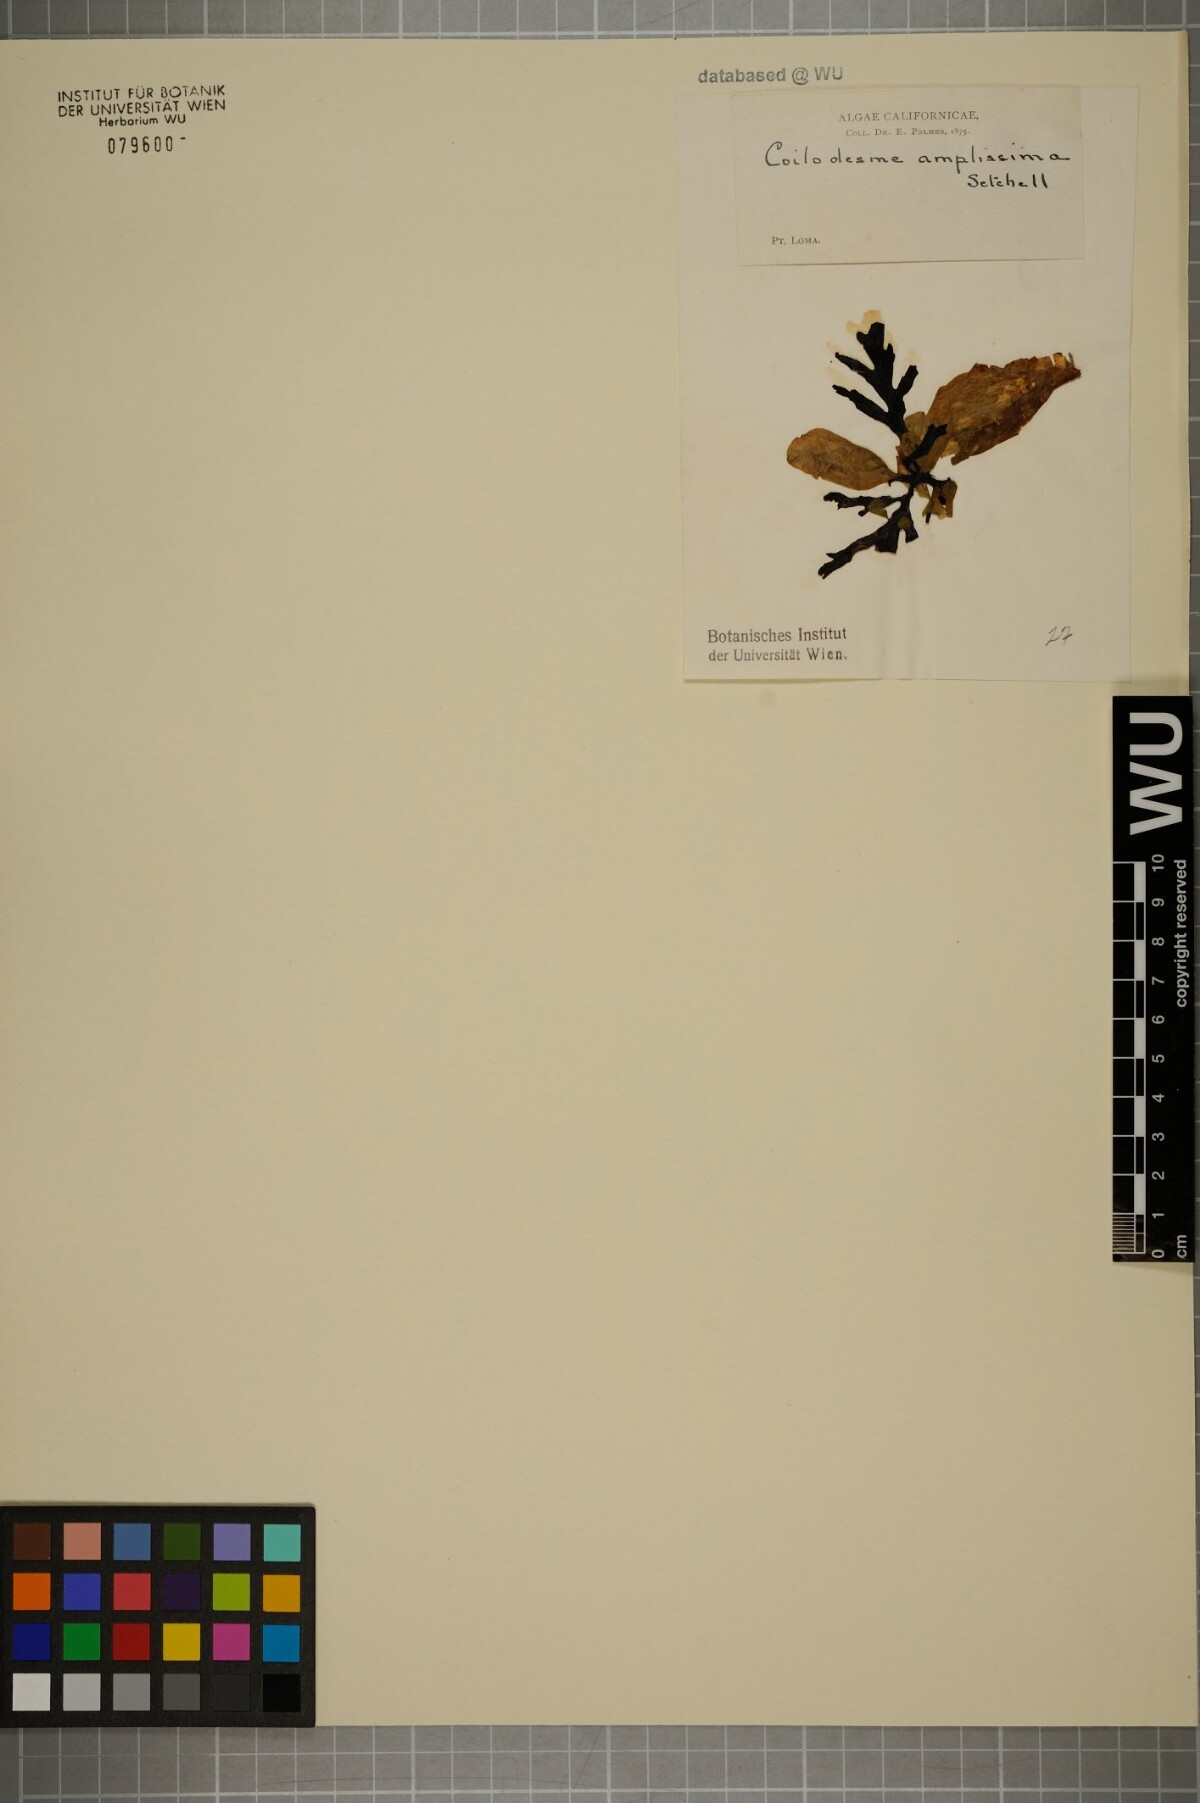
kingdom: Chromista
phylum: Ochrophyta
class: Phaeophyceae
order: Ectocarpales
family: Chordariaceae
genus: Coilodesme
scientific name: Coilodesme
